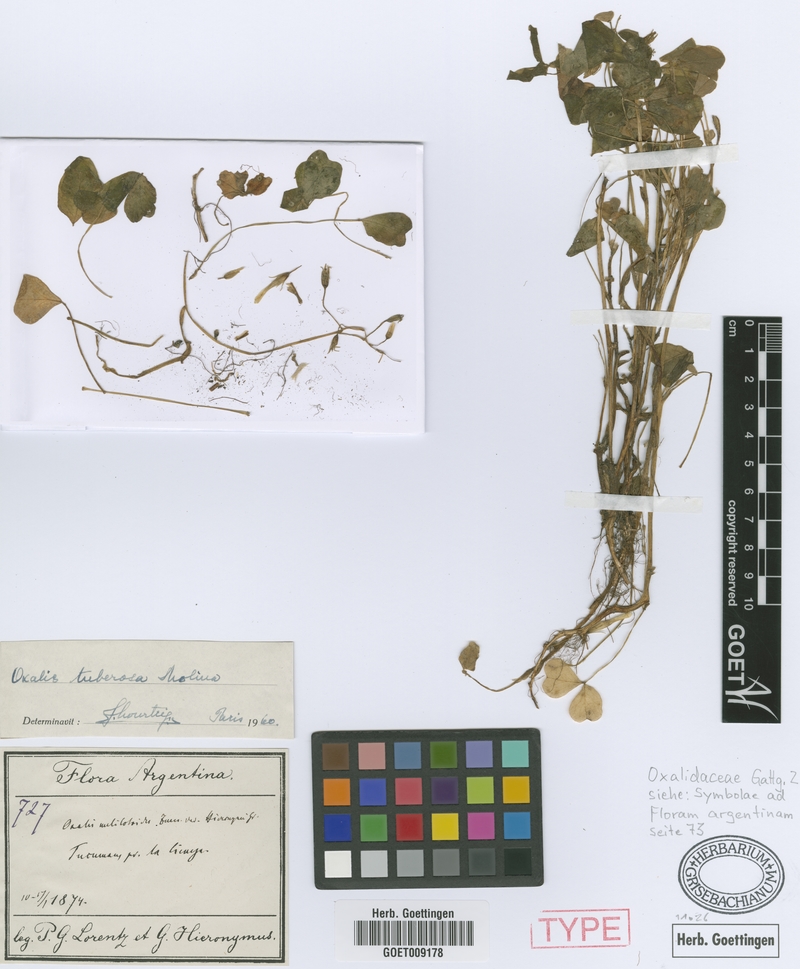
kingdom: Plantae
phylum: Tracheophyta
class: Magnoliopsida
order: Oxalidales
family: Oxalidaceae
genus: Oxalis
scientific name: Oxalis tuberosa
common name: New zealand-yam
